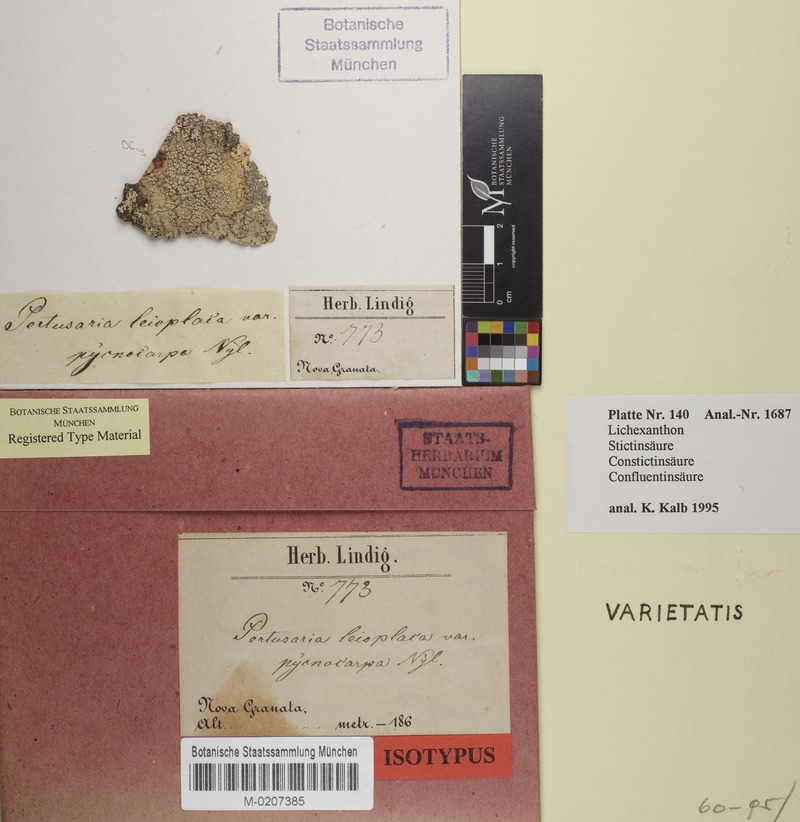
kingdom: Fungi
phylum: Ascomycota
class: Lecanoromycetes
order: Pertusariales
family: Pertusariaceae
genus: Pertusaria
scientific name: Pertusaria leioplaca
